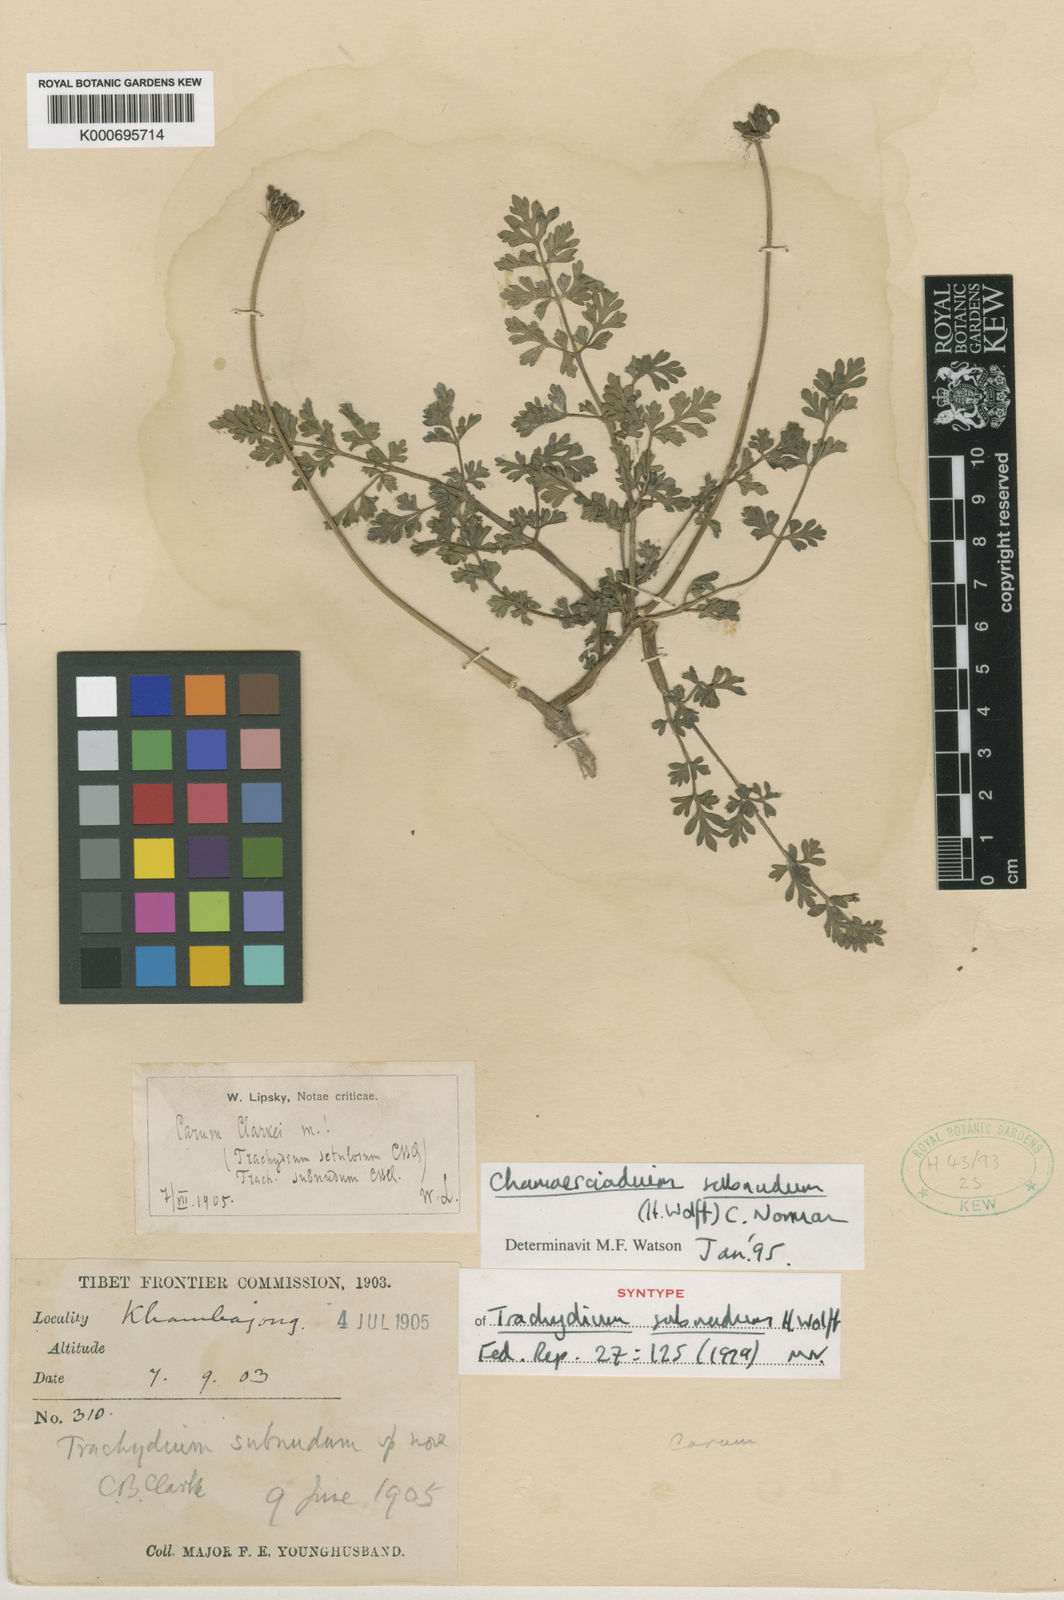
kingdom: Plantae
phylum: Tracheophyta
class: Magnoliopsida
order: Apiales
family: Apiaceae
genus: Trachydium
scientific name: Trachydium subnudum
